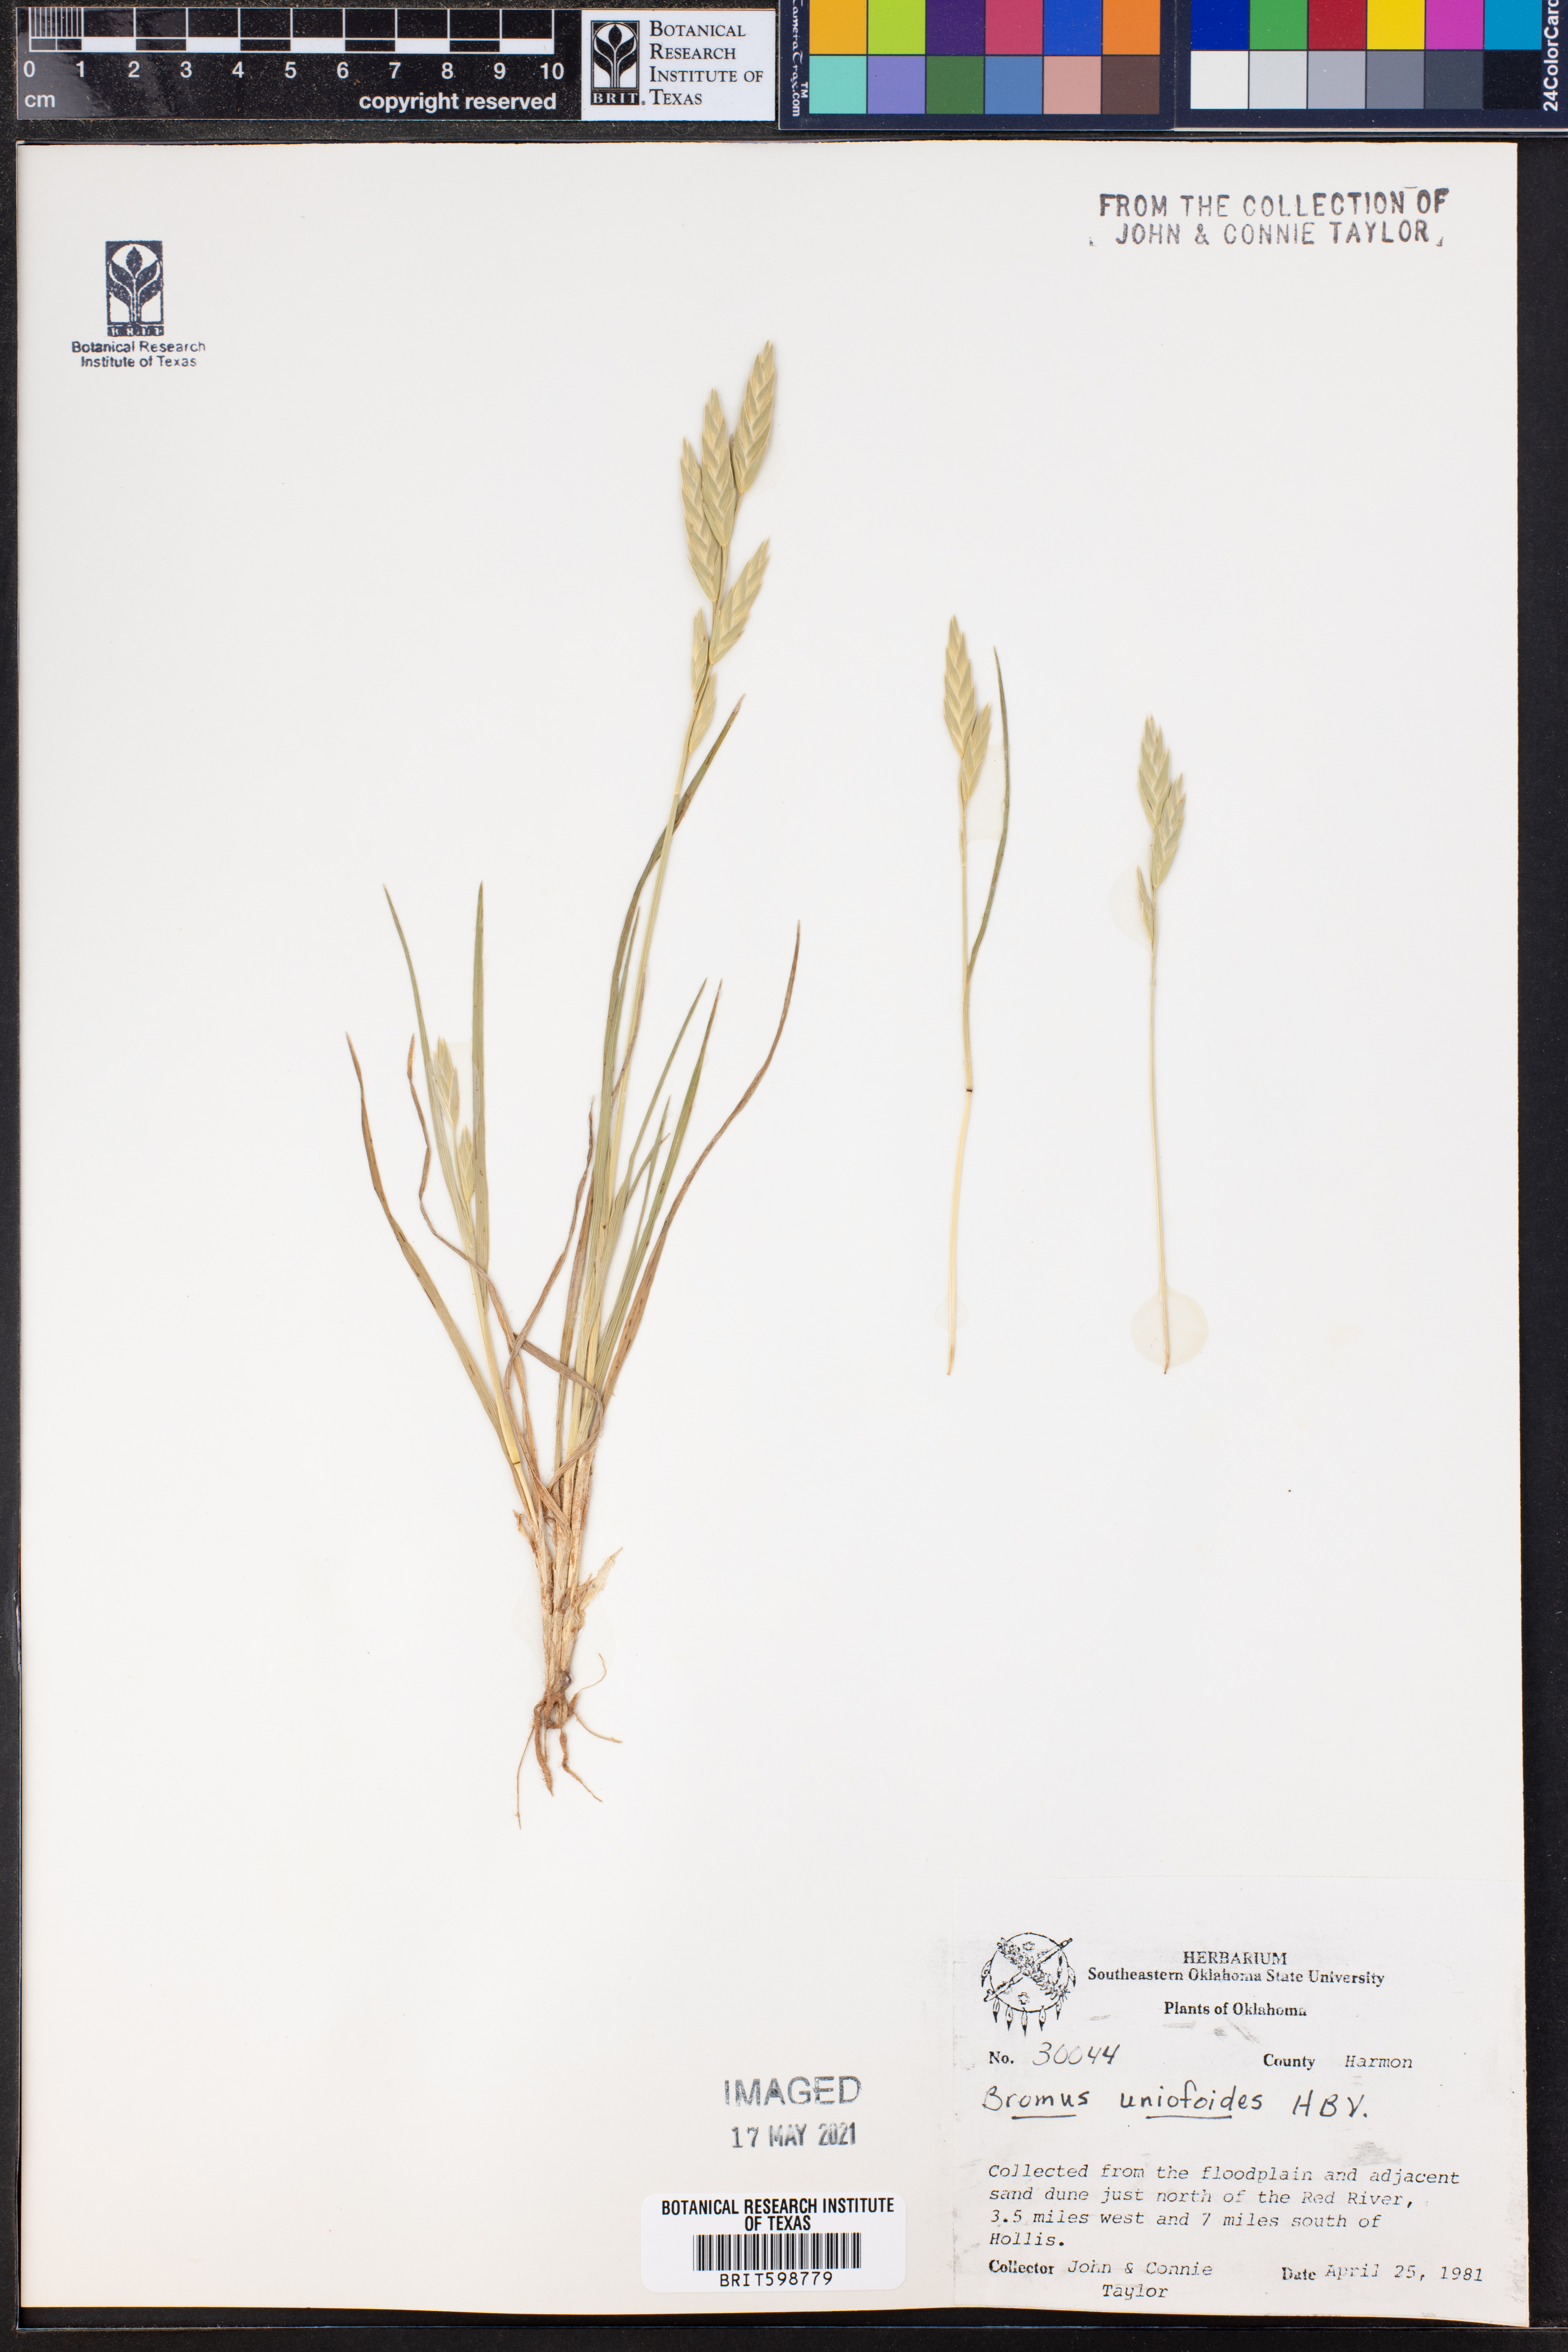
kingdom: Plantae
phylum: Tracheophyta
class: Liliopsida
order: Poales
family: Poaceae
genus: Bromus
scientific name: Bromus catharticus
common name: Rescuegrass
